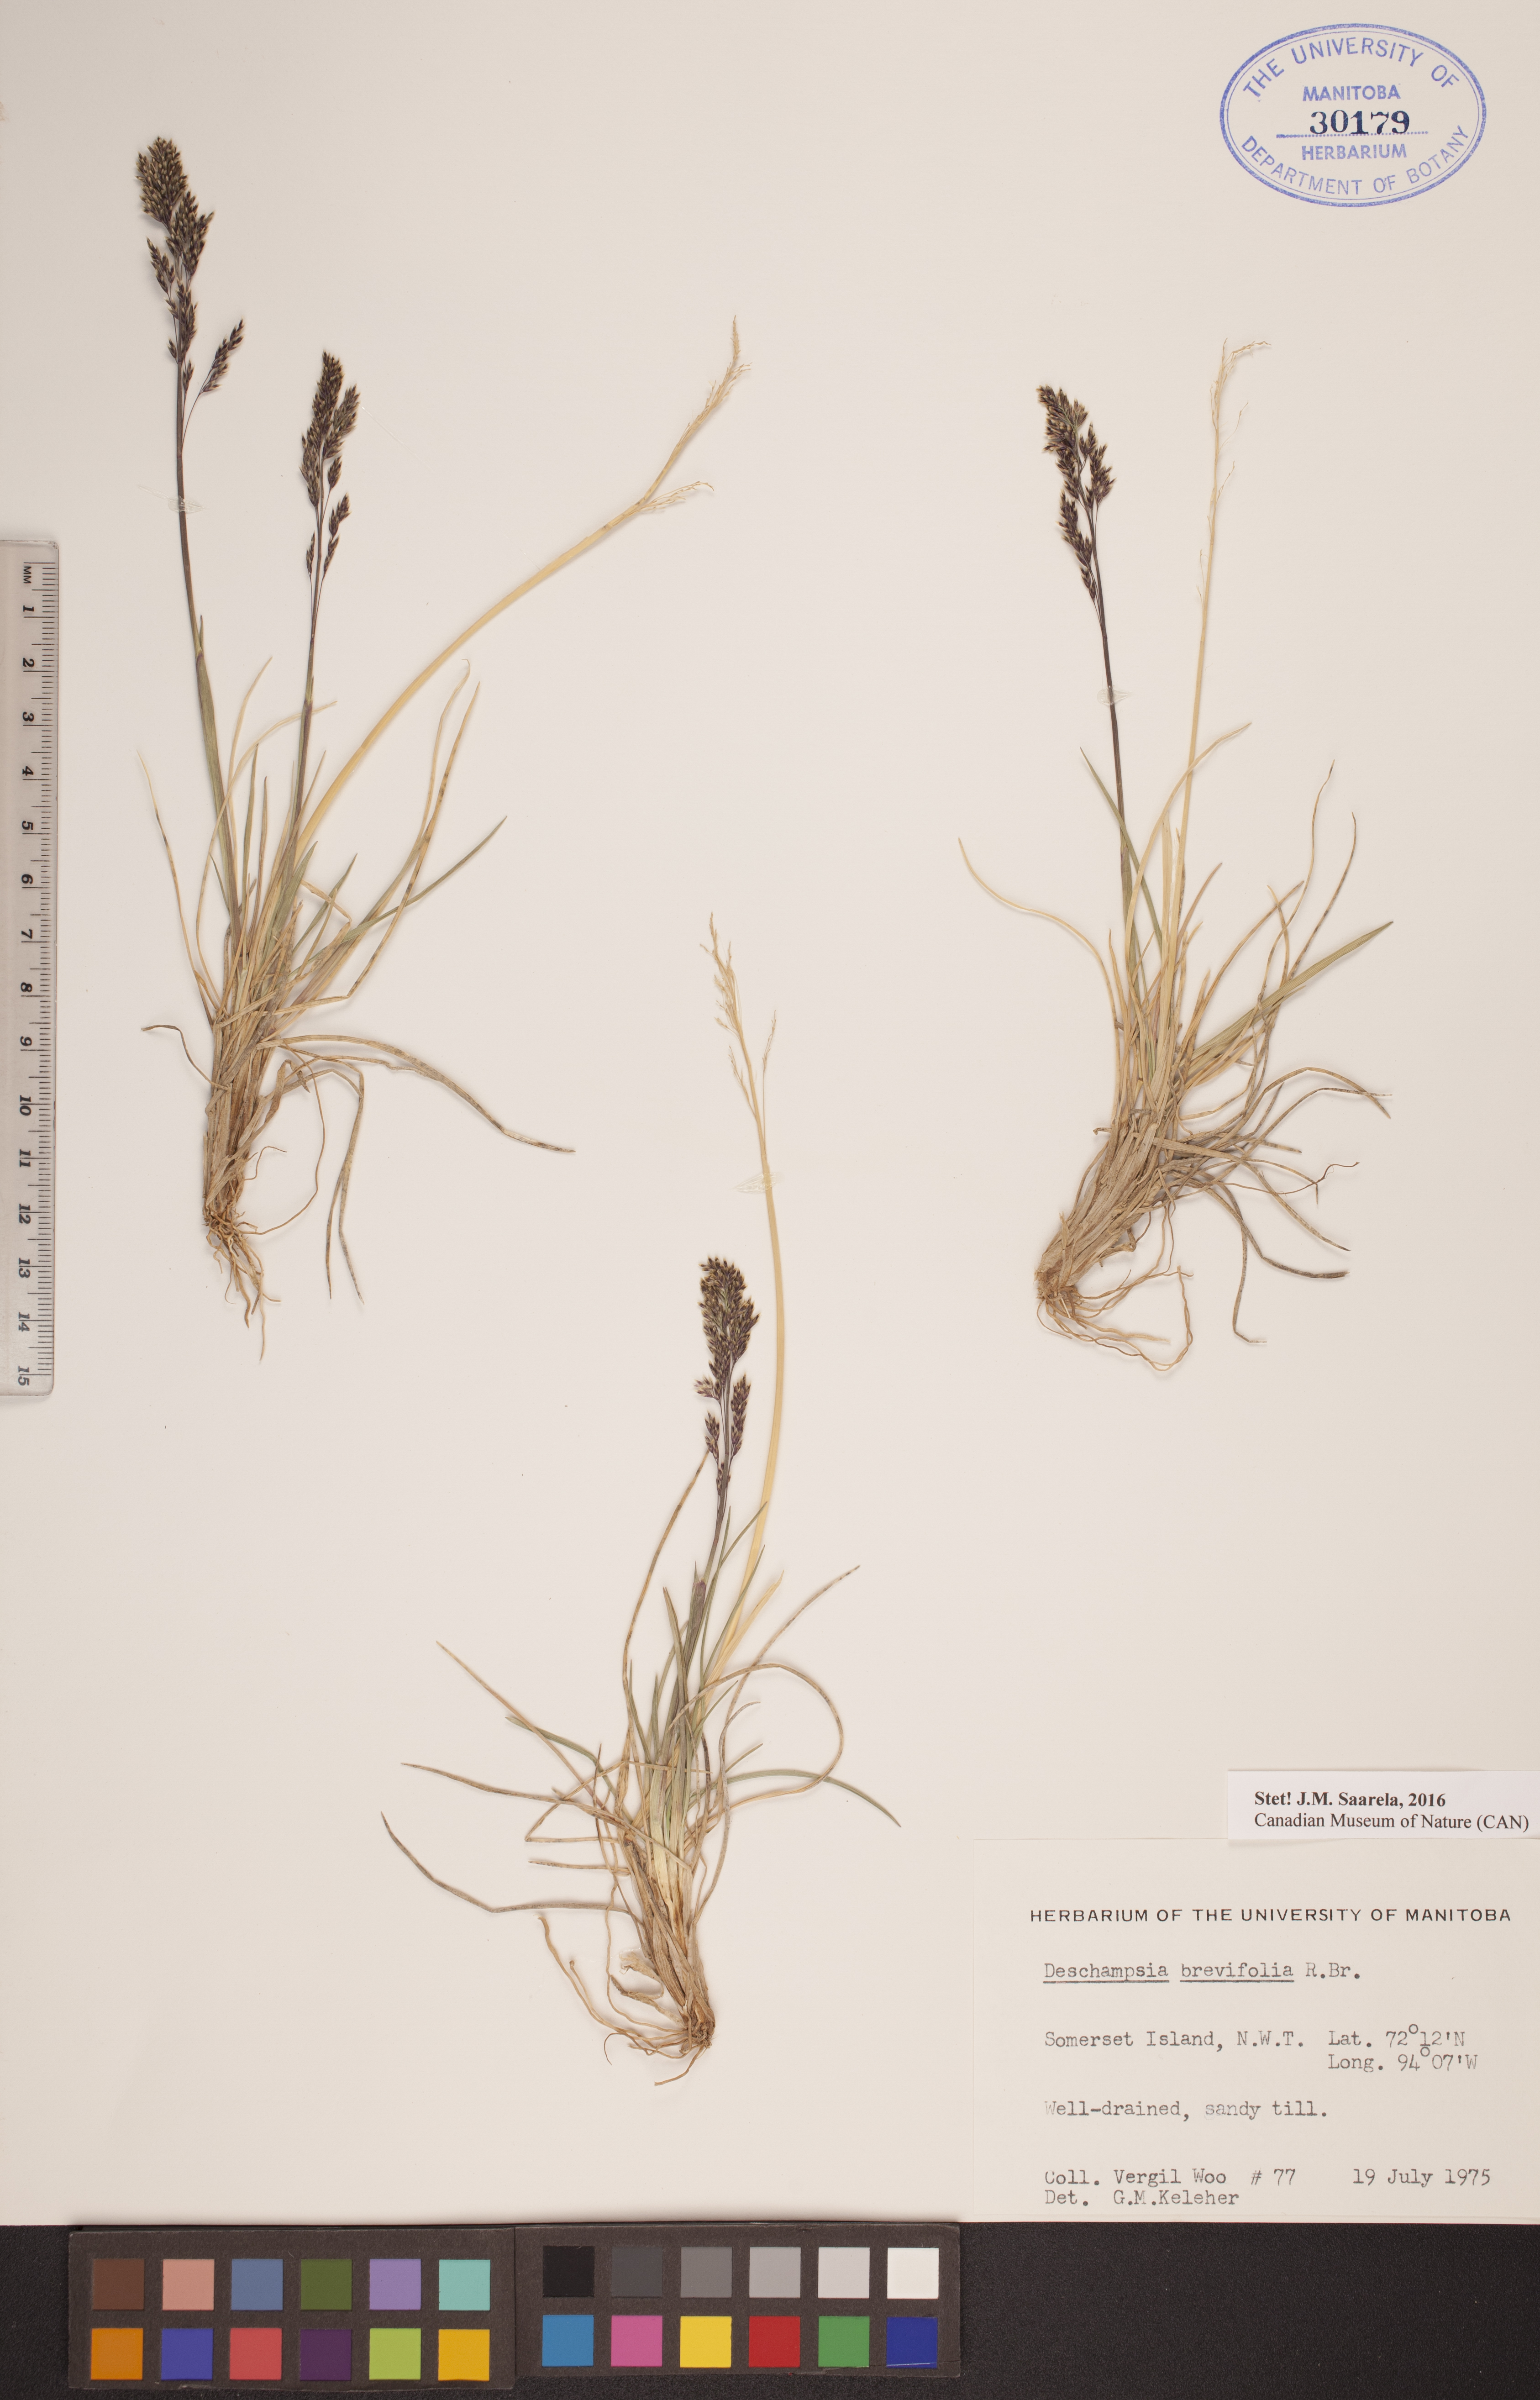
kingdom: Plantae
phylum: Tracheophyta
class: Liliopsida
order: Poales
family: Poaceae
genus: Deschampsia
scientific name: Deschampsia cespitosa
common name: Tufted hair-grass
